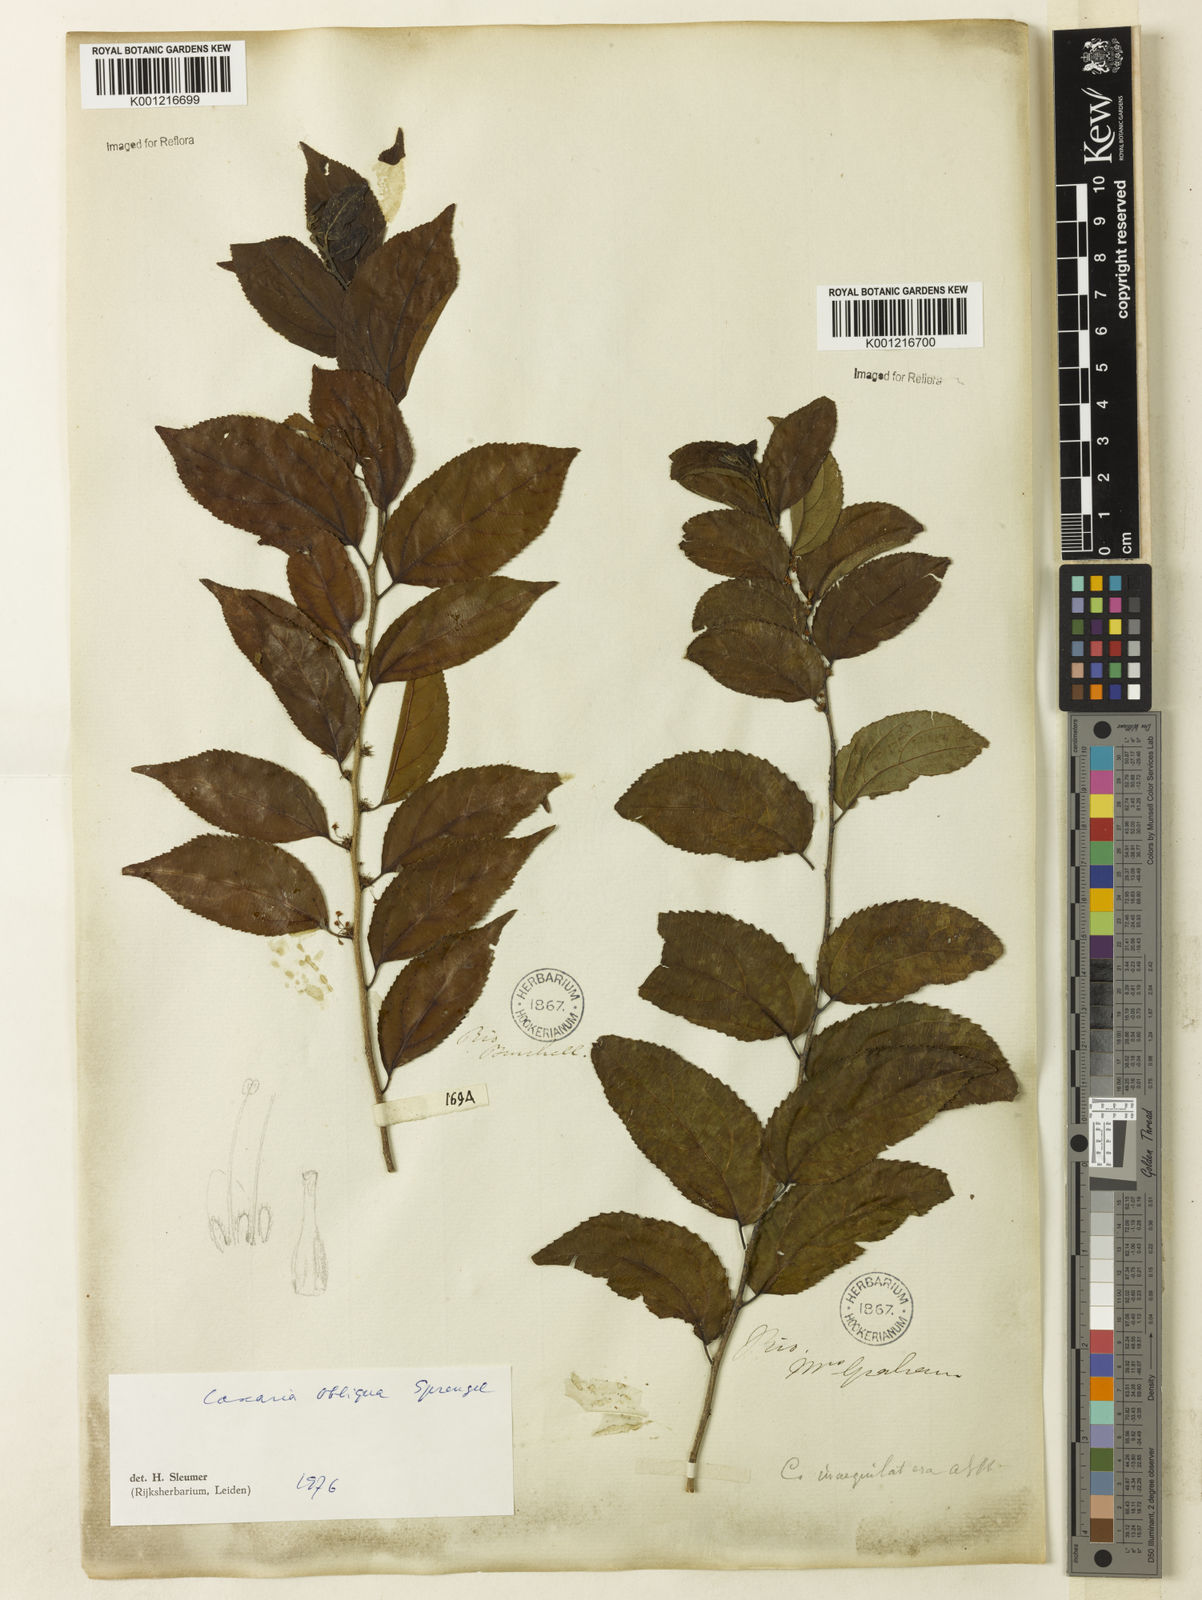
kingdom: Plantae
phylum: Tracheophyta
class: Magnoliopsida
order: Malpighiales
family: Salicaceae
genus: Casearia
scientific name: Casearia obliqua
